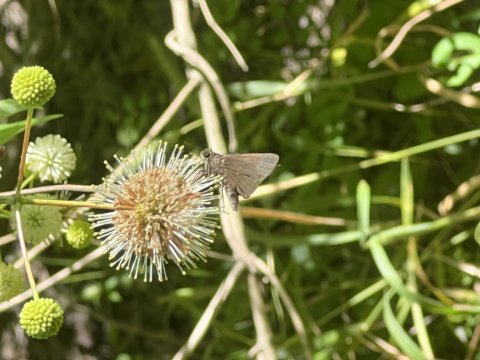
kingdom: Animalia
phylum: Arthropoda
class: Insecta
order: Lepidoptera
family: Hesperiidae
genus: Euphyes
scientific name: Euphyes vestris
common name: Dun Skipper
